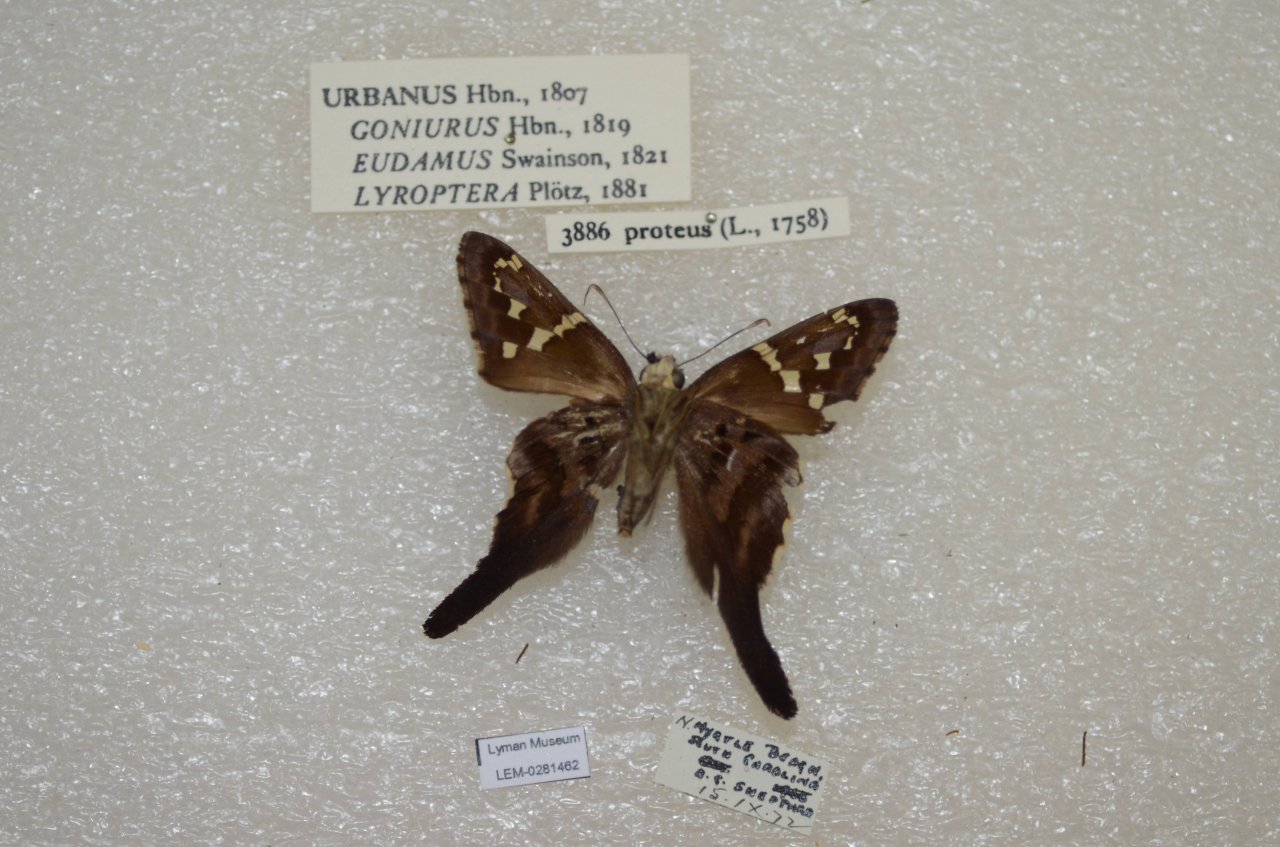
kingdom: Animalia
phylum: Arthropoda
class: Insecta
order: Lepidoptera
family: Hesperiidae
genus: Urbanus
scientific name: Urbanus proteus
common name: Long-tailed Skipper
